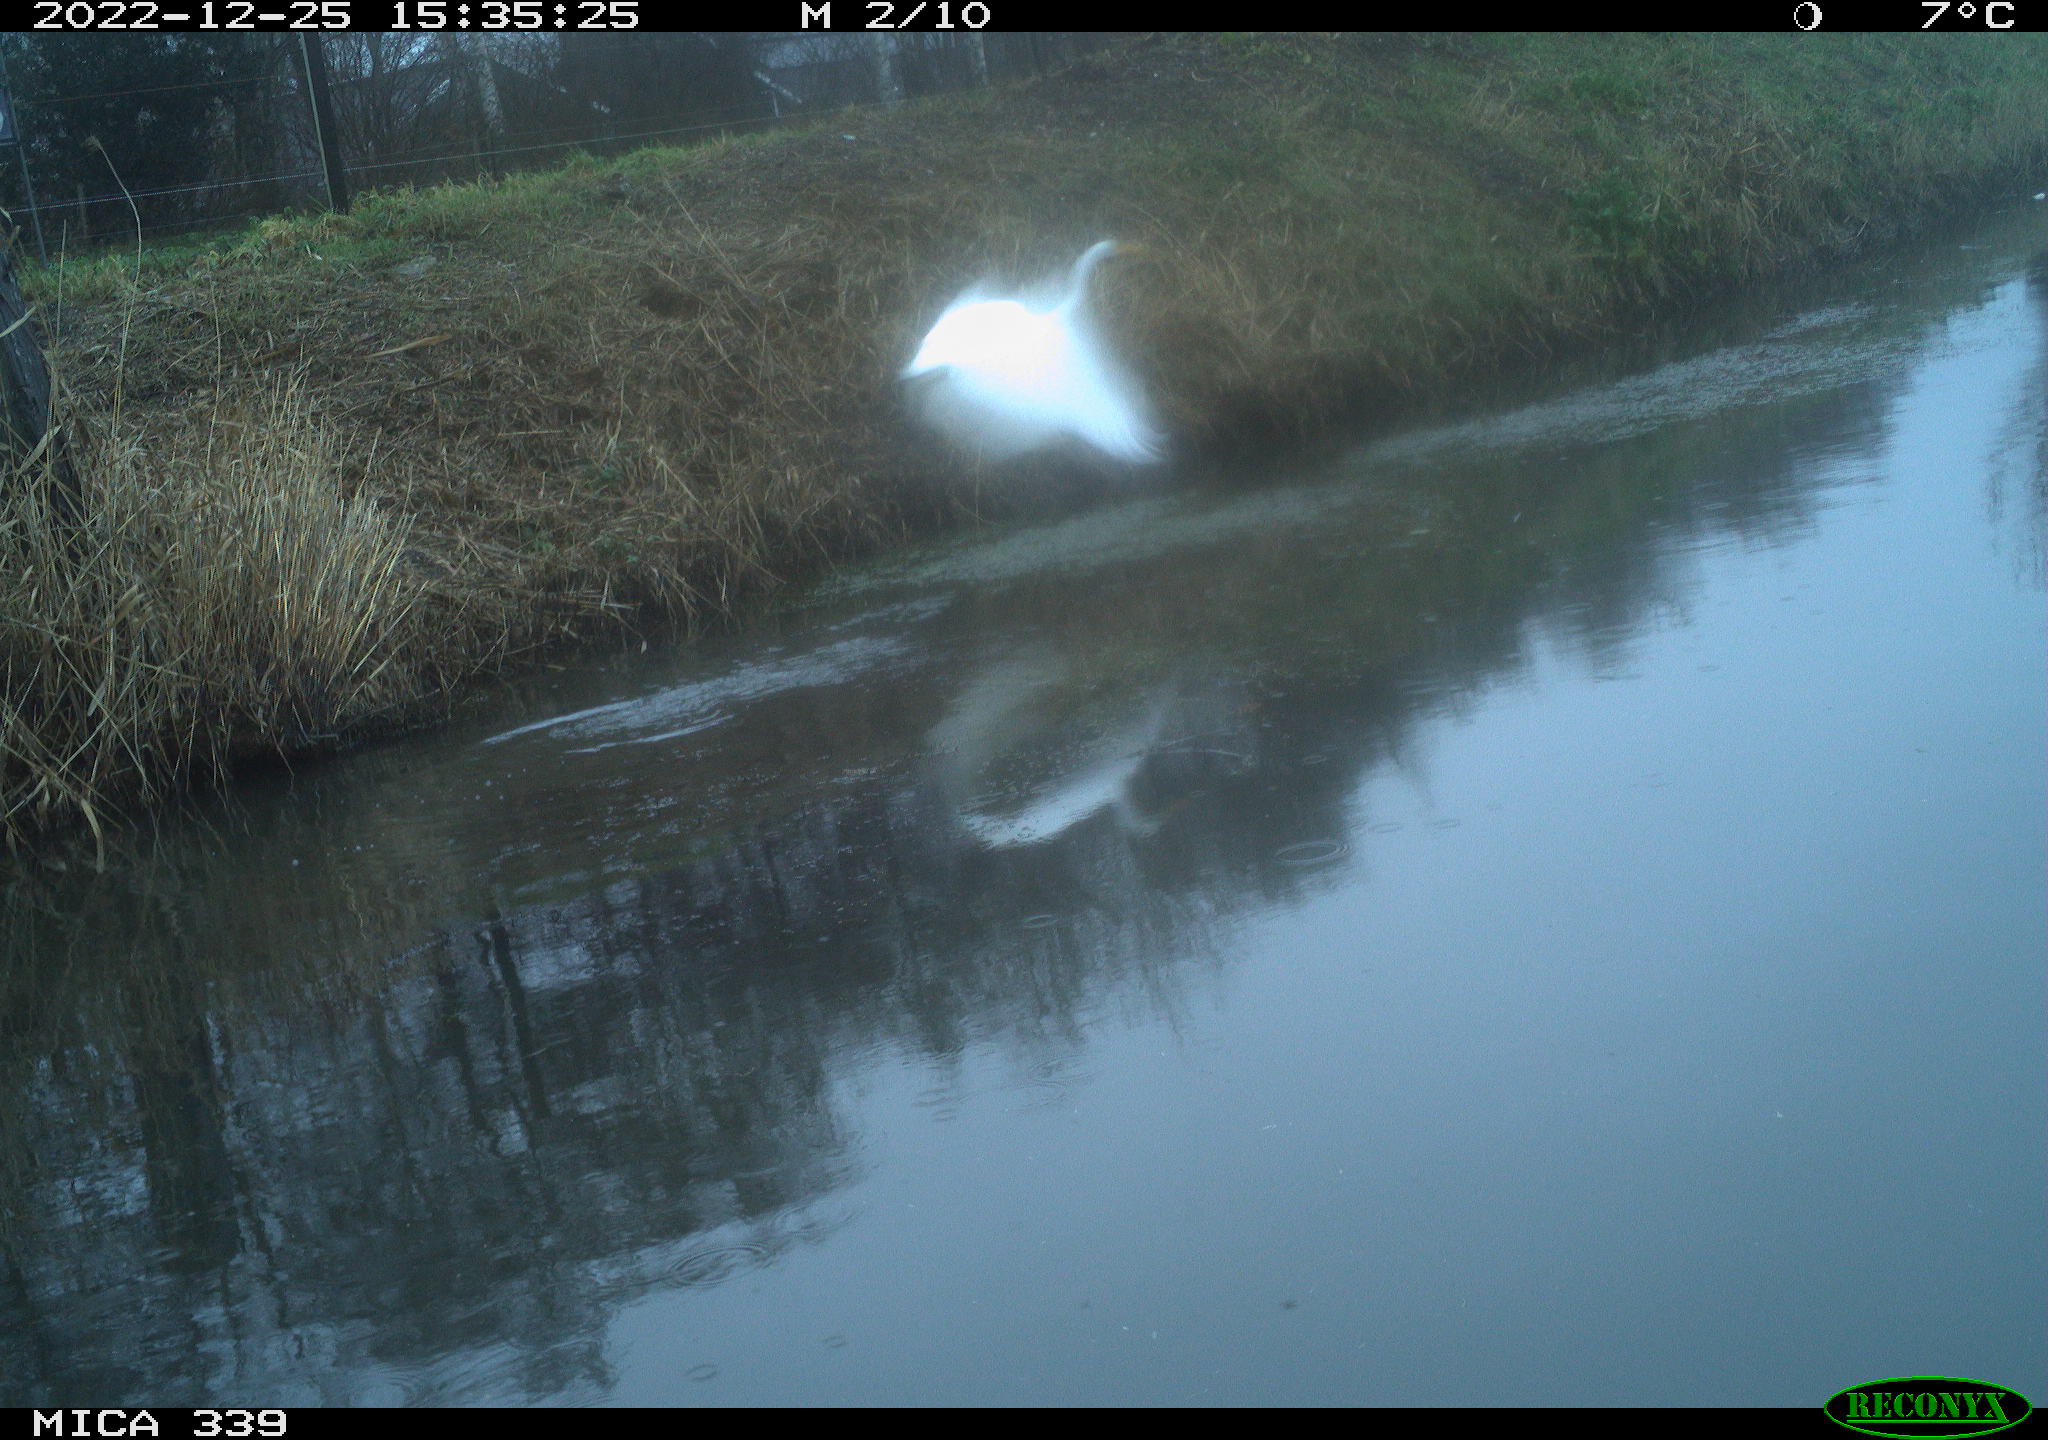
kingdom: Animalia
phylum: Chordata
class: Aves
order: Pelecaniformes
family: Ardeidae
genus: Ardea
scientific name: Ardea alba
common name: Great egret
